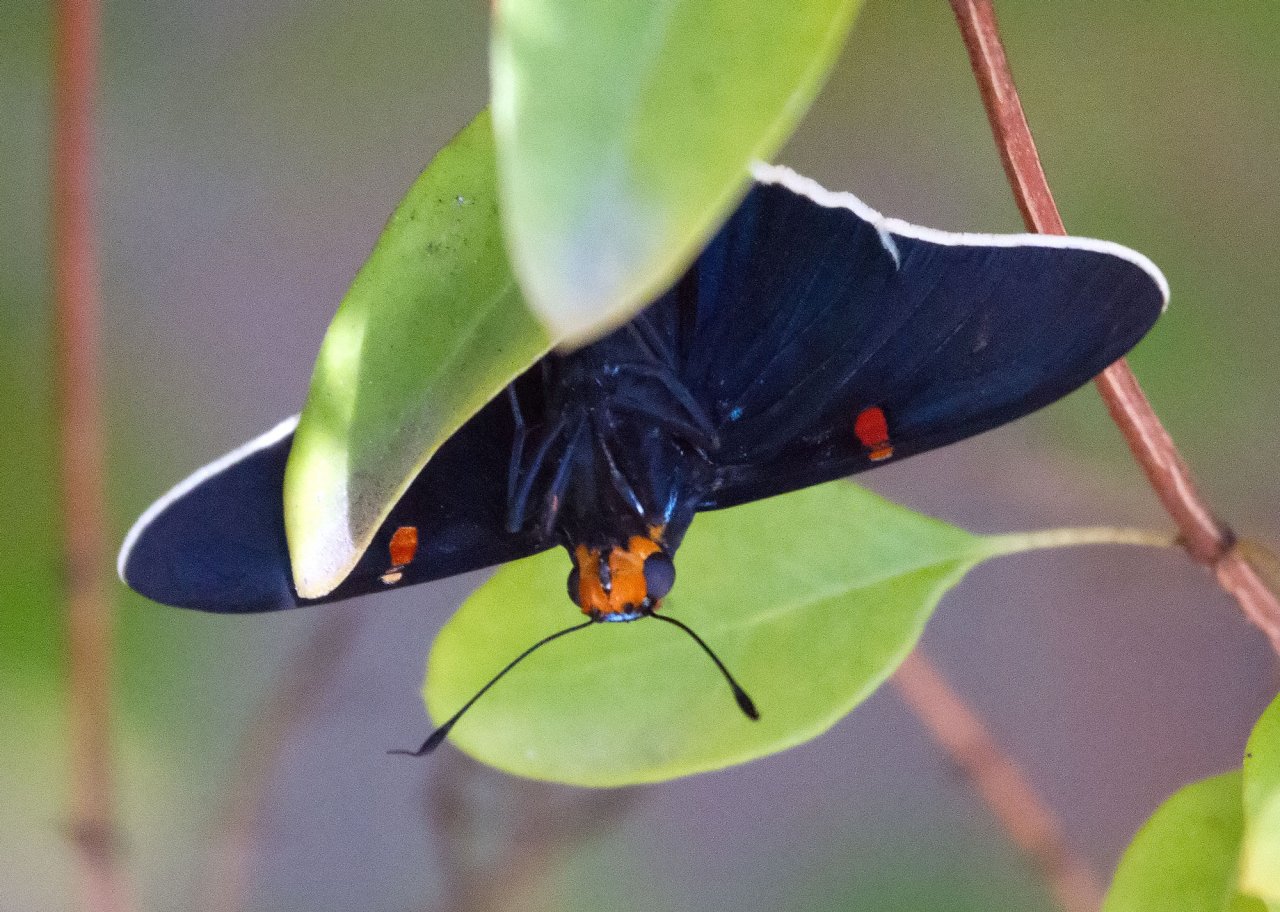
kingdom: Animalia
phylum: Arthropoda
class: Insecta
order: Lepidoptera
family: Hesperiidae
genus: Phocides
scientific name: Phocides polybius
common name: Guava Skipper
